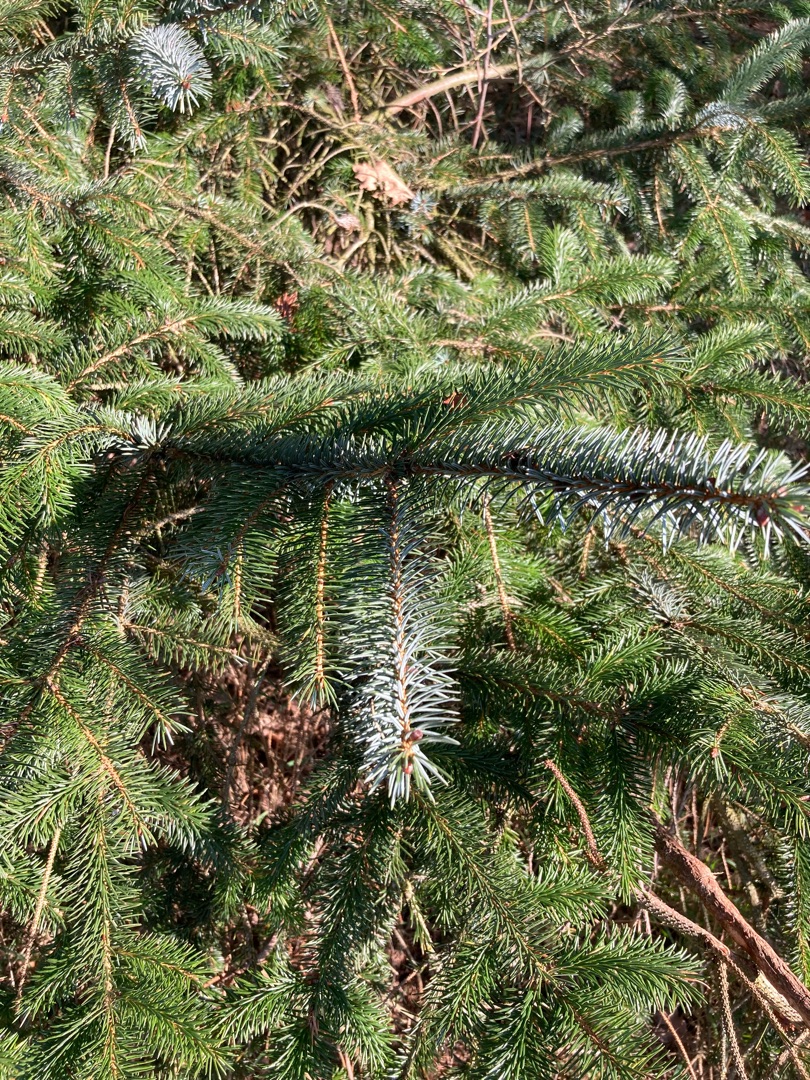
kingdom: Plantae
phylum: Tracheophyta
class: Pinopsida
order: Pinales
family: Pinaceae
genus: Picea
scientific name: Picea sitchensis
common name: Sitka-gran
